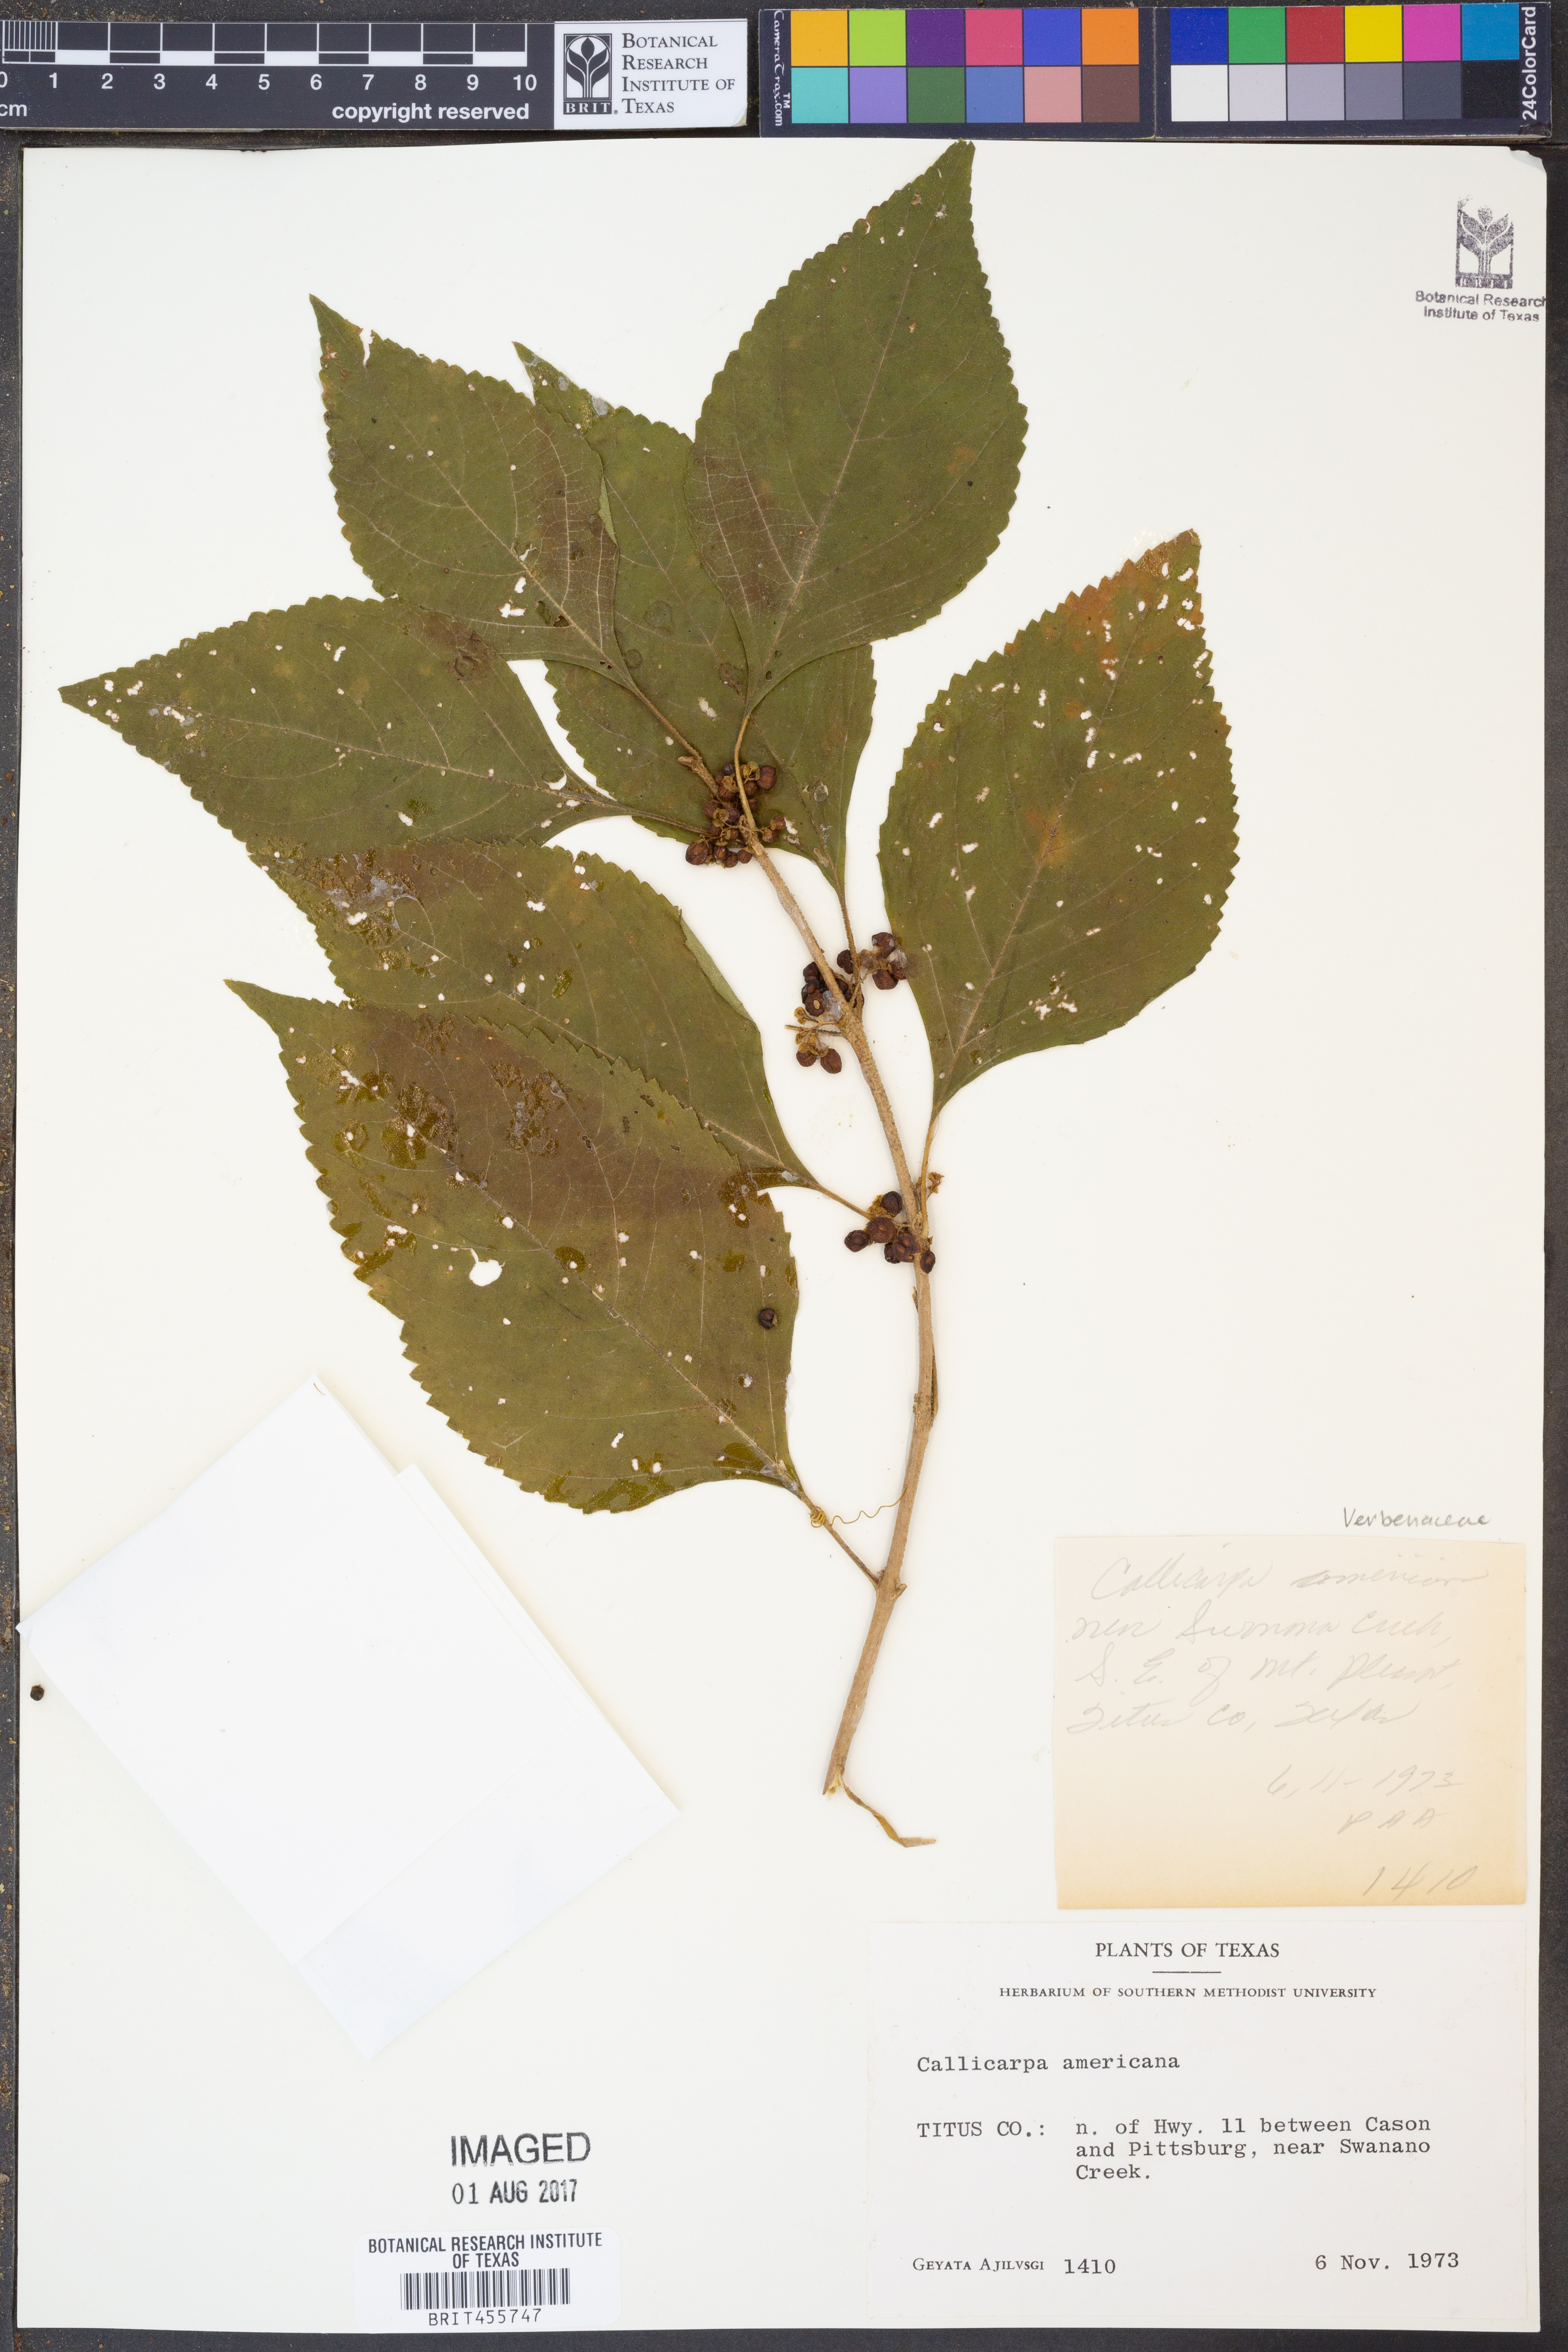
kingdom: Plantae
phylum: Tracheophyta
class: Magnoliopsida
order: Lamiales
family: Lamiaceae
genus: Callicarpa
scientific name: Callicarpa americana
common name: American beautyberry
